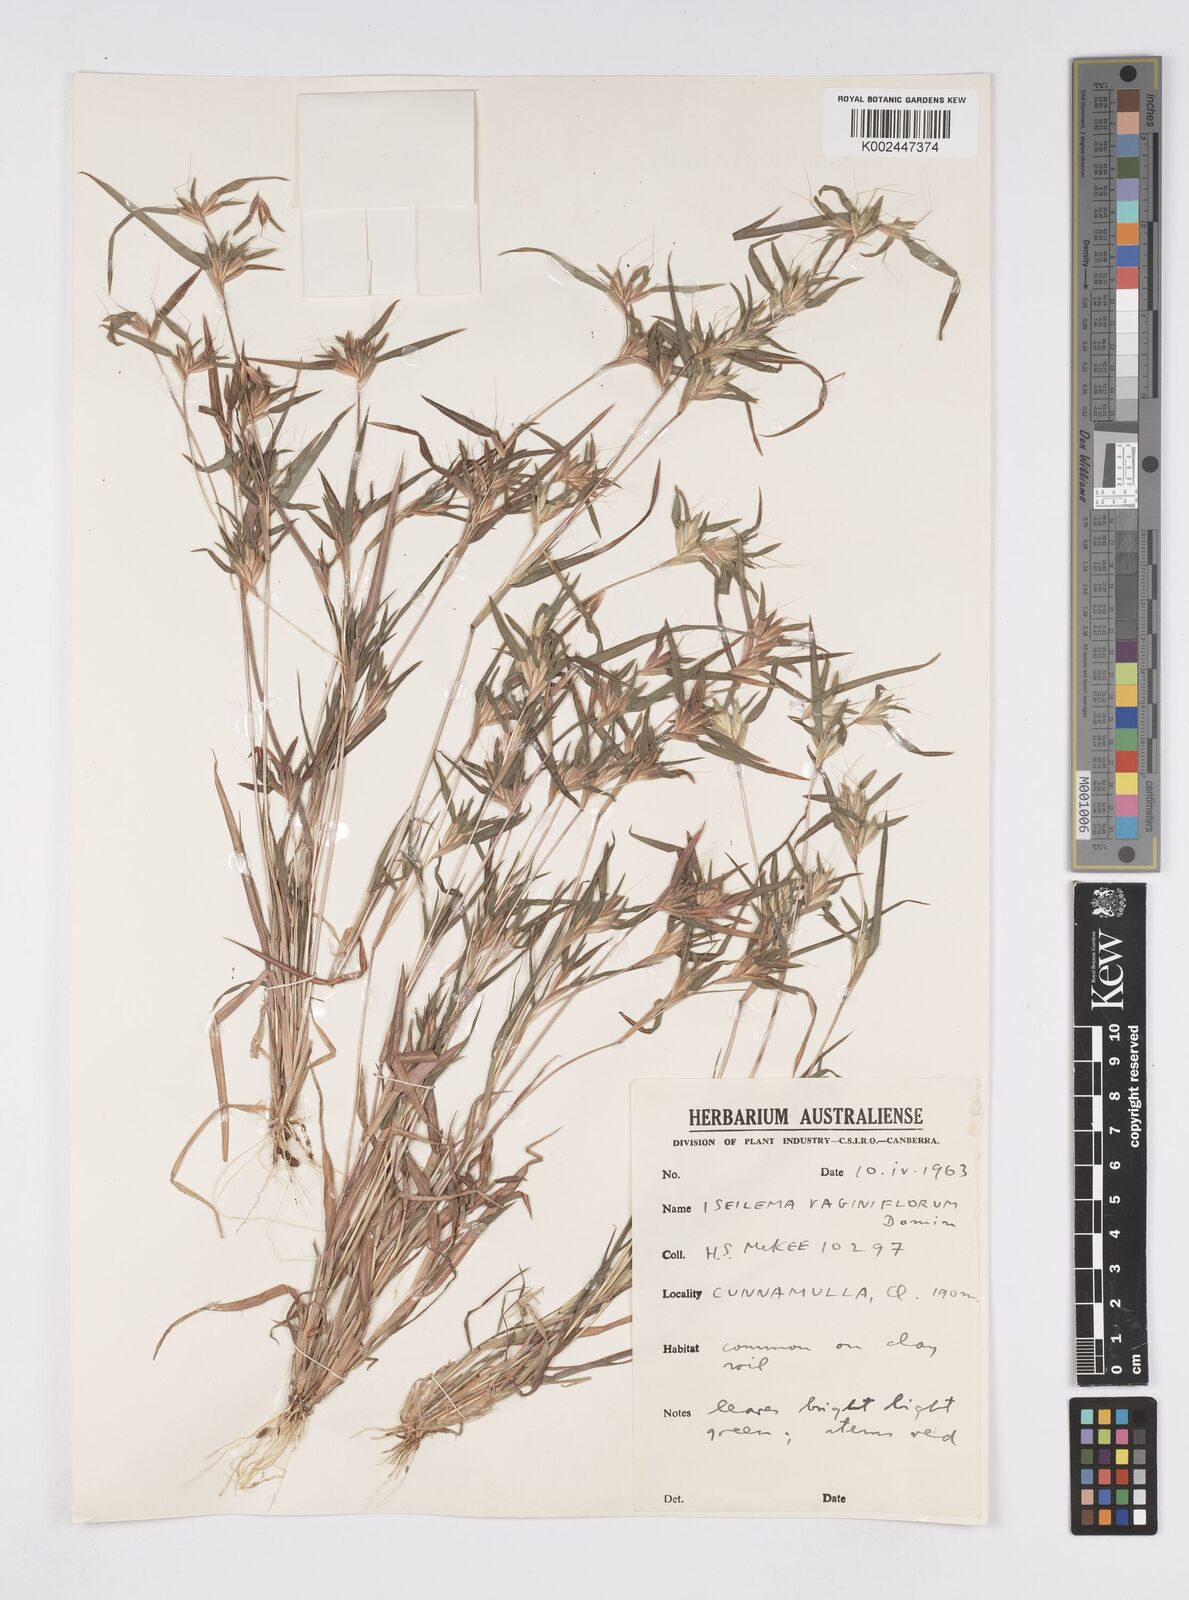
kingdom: Plantae
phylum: Tracheophyta
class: Liliopsida
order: Poales
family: Poaceae
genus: Iseilema
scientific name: Iseilema vaginiflorum
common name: Red flinders grass
